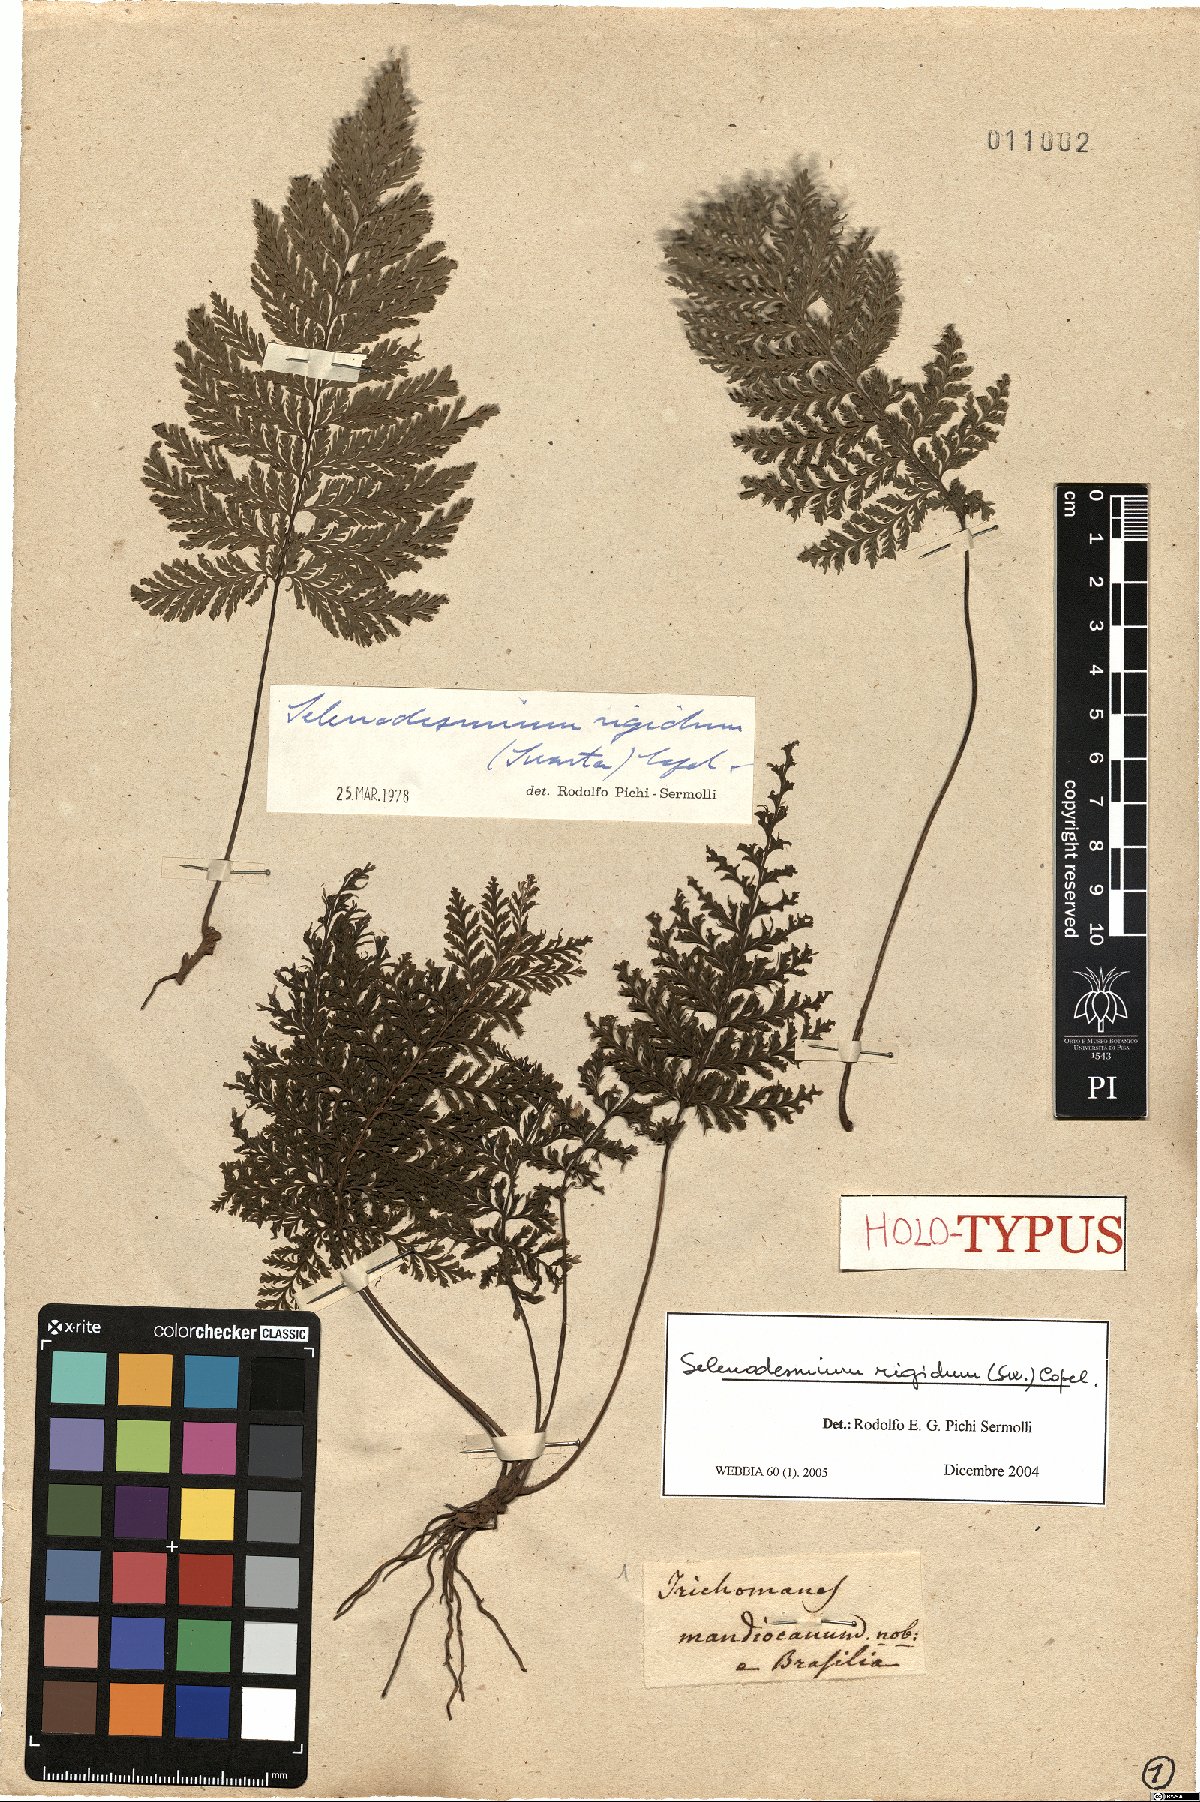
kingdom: Plantae
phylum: Tracheophyta
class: Polypodiopsida
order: Hymenophyllales
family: Hymenophyllaceae
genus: Abrodictyum
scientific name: Abrodictyum rigidum
